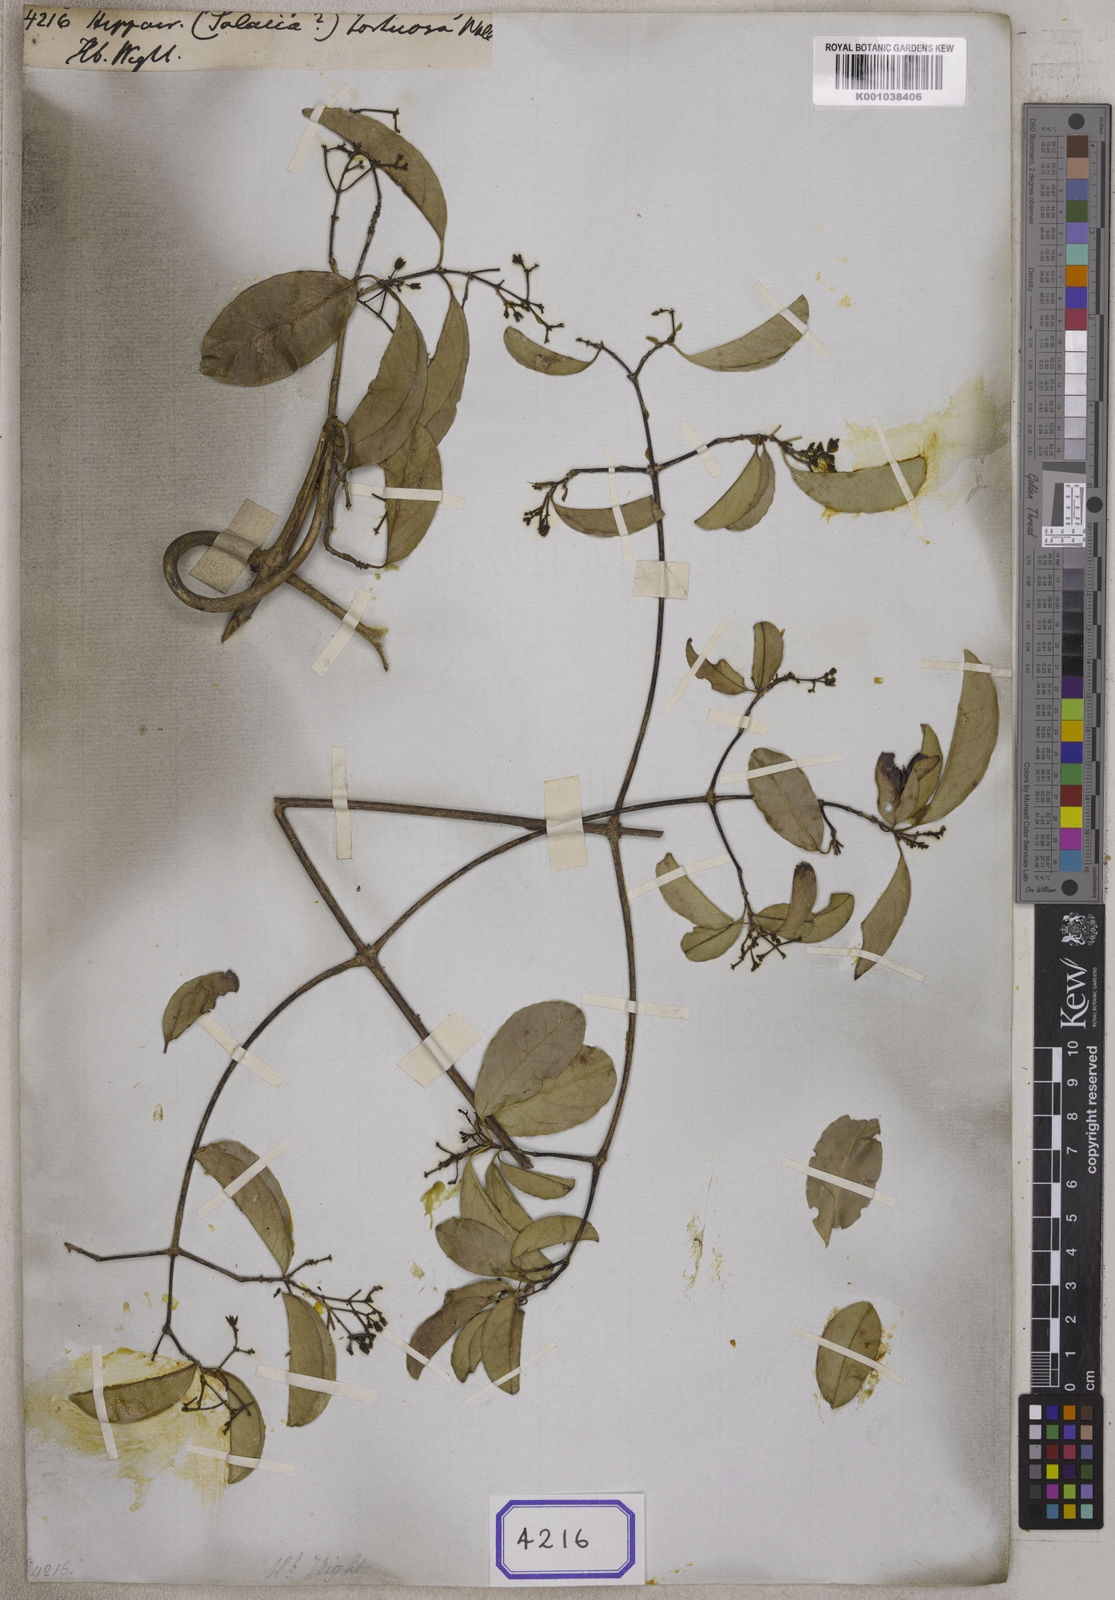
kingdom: Plantae
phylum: Tracheophyta
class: Magnoliopsida
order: Celastrales
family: Celastraceae
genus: Loeseneriella
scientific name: Loeseneriella obtusifolia
